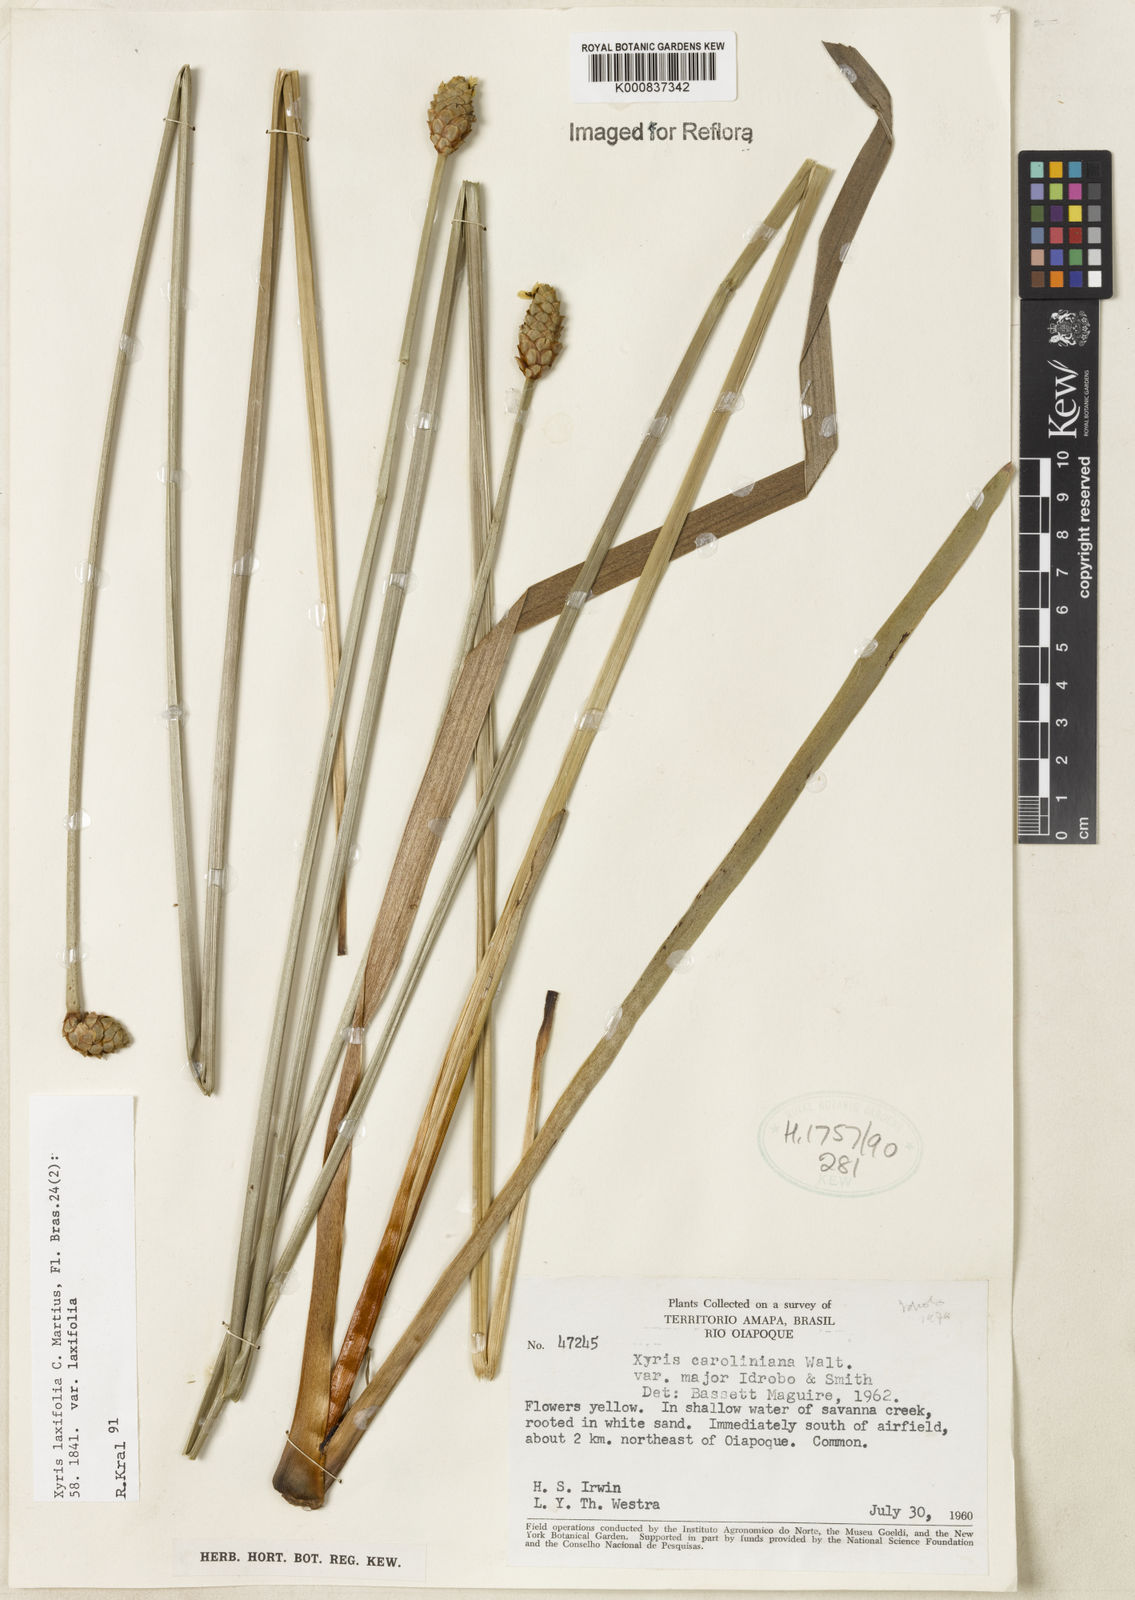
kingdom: Plantae
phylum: Tracheophyta
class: Liliopsida
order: Poales
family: Xyridaceae
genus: Xyris
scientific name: Xyris laxifolia
